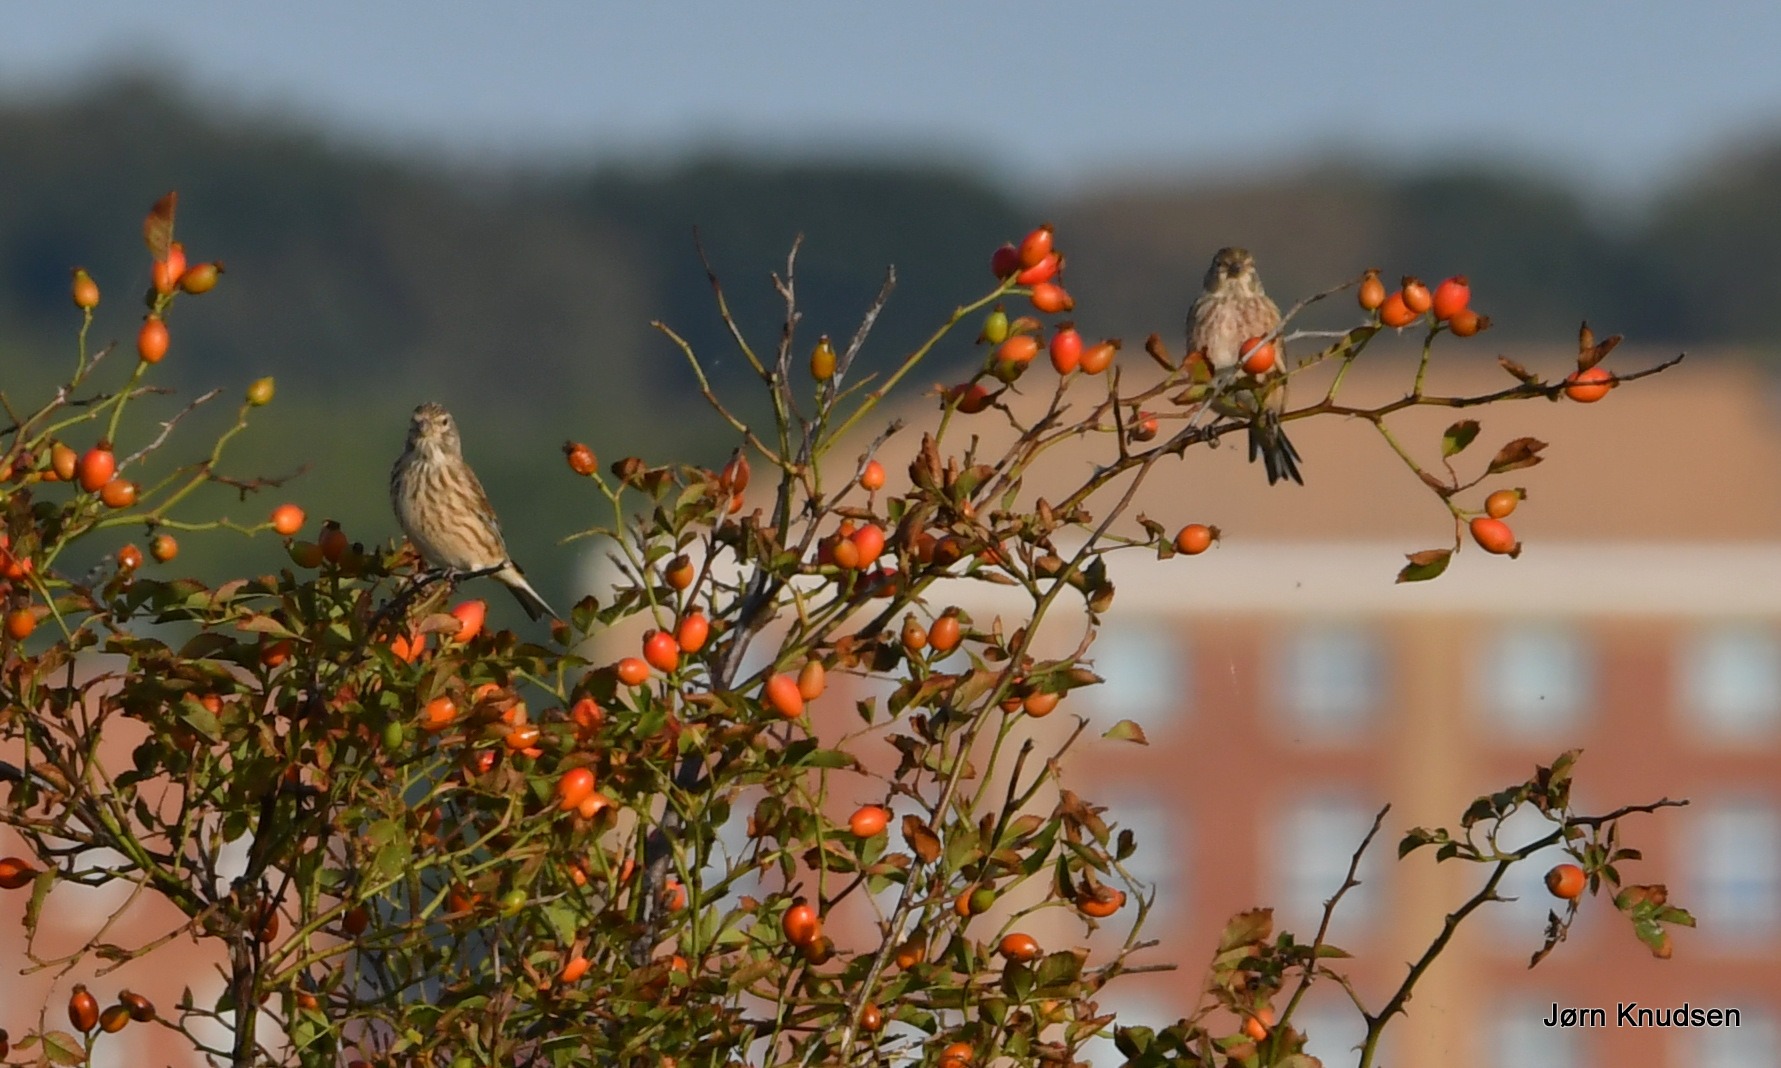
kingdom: Animalia
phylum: Chordata
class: Aves
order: Passeriformes
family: Fringillidae
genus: Linaria
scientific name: Linaria cannabina
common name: Tornirisk
